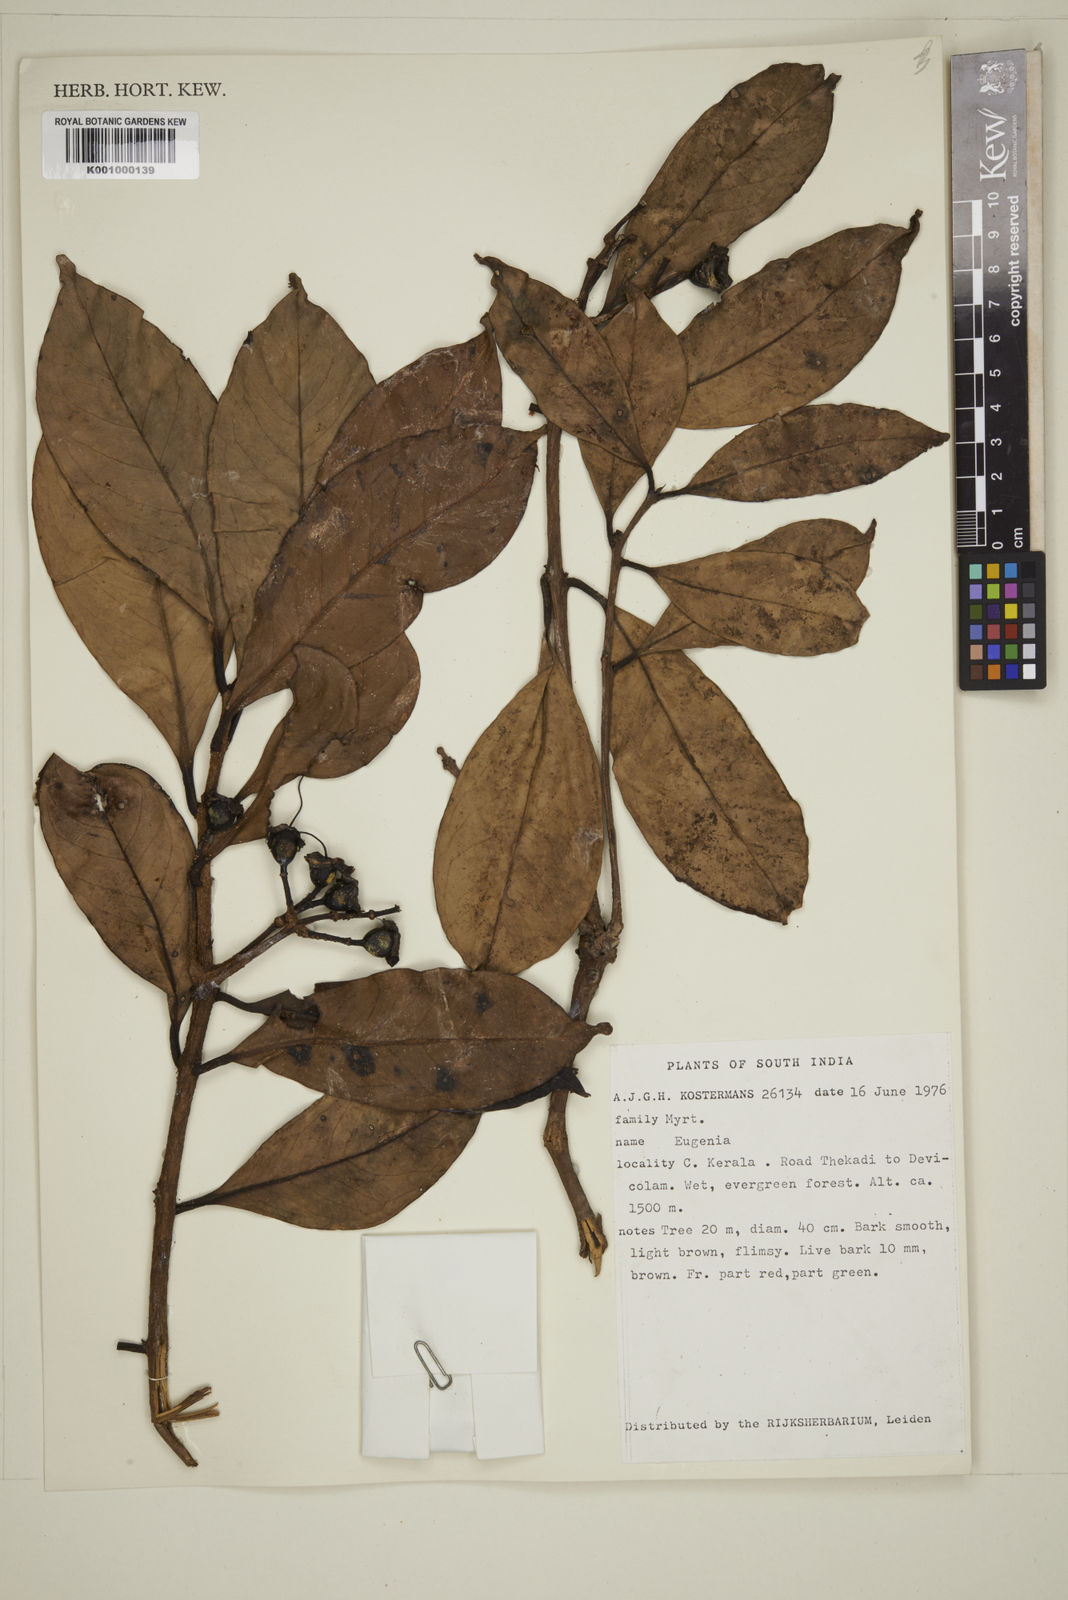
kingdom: Plantae
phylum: Tracheophyta
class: Magnoliopsida
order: Myrtales
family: Myrtaceae
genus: Eugenia
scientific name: Eugenia
